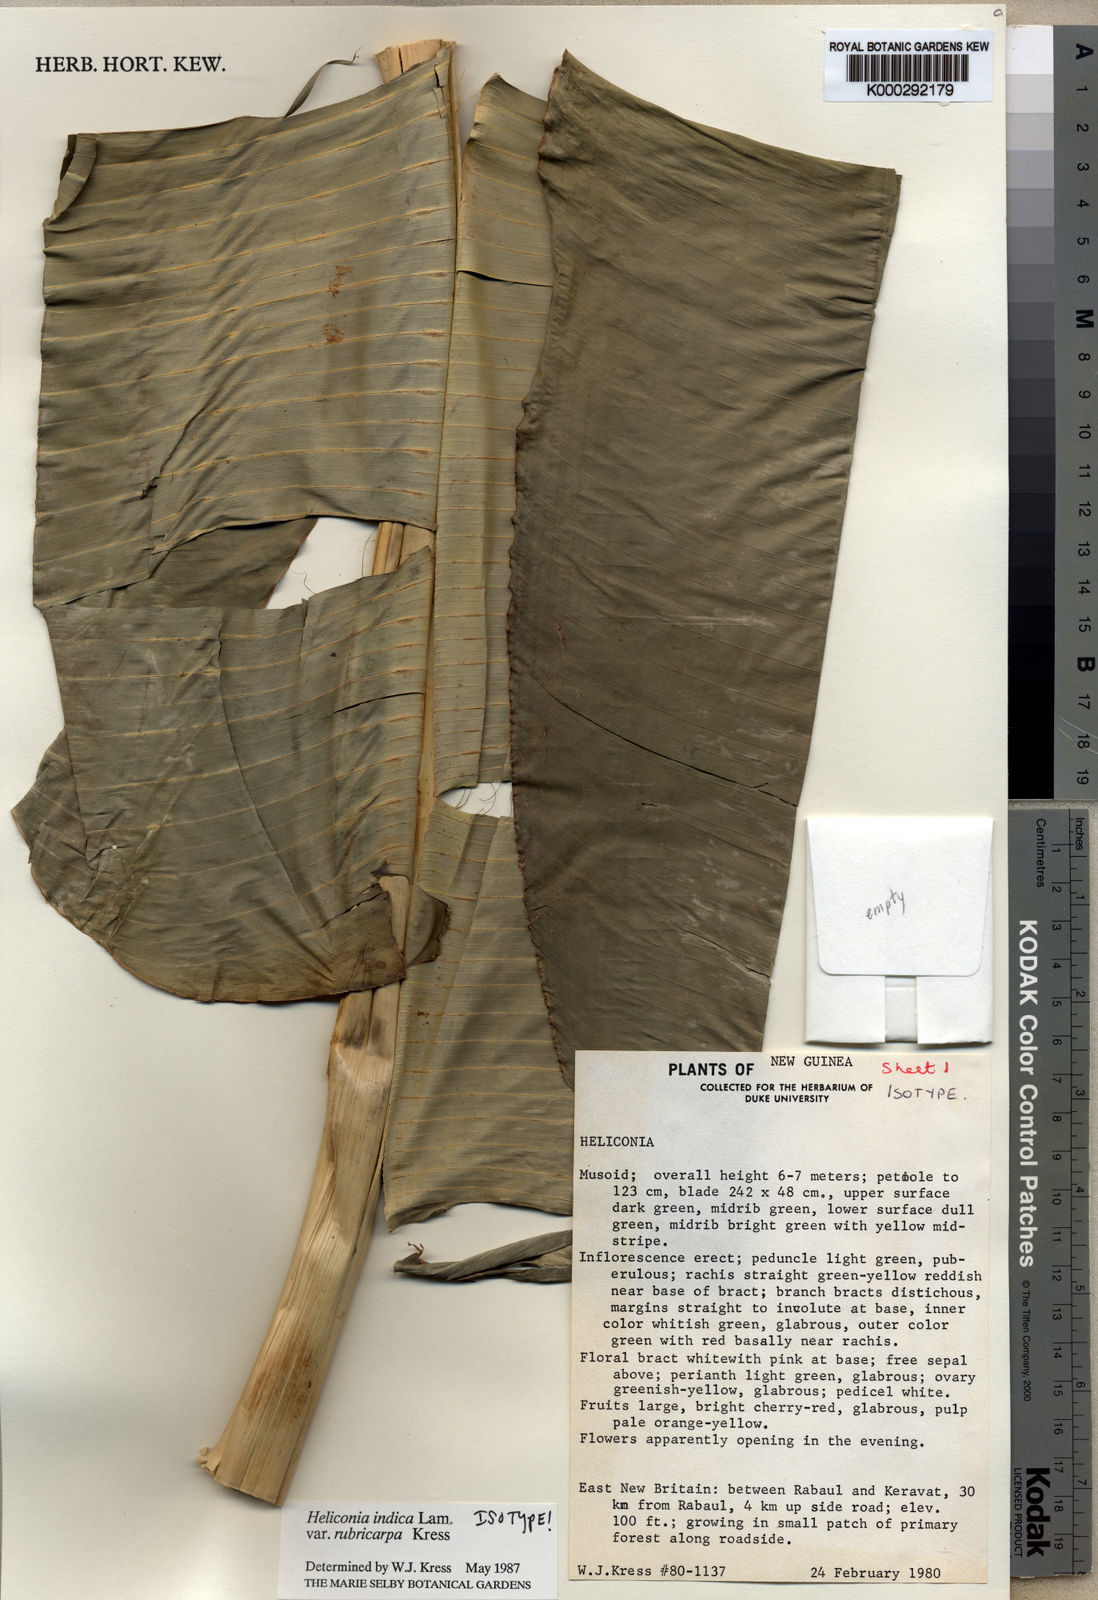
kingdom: Plantae
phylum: Tracheophyta
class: Liliopsida
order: Zingiberales
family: Heliconiaceae
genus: Heliconia
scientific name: Heliconia indica
